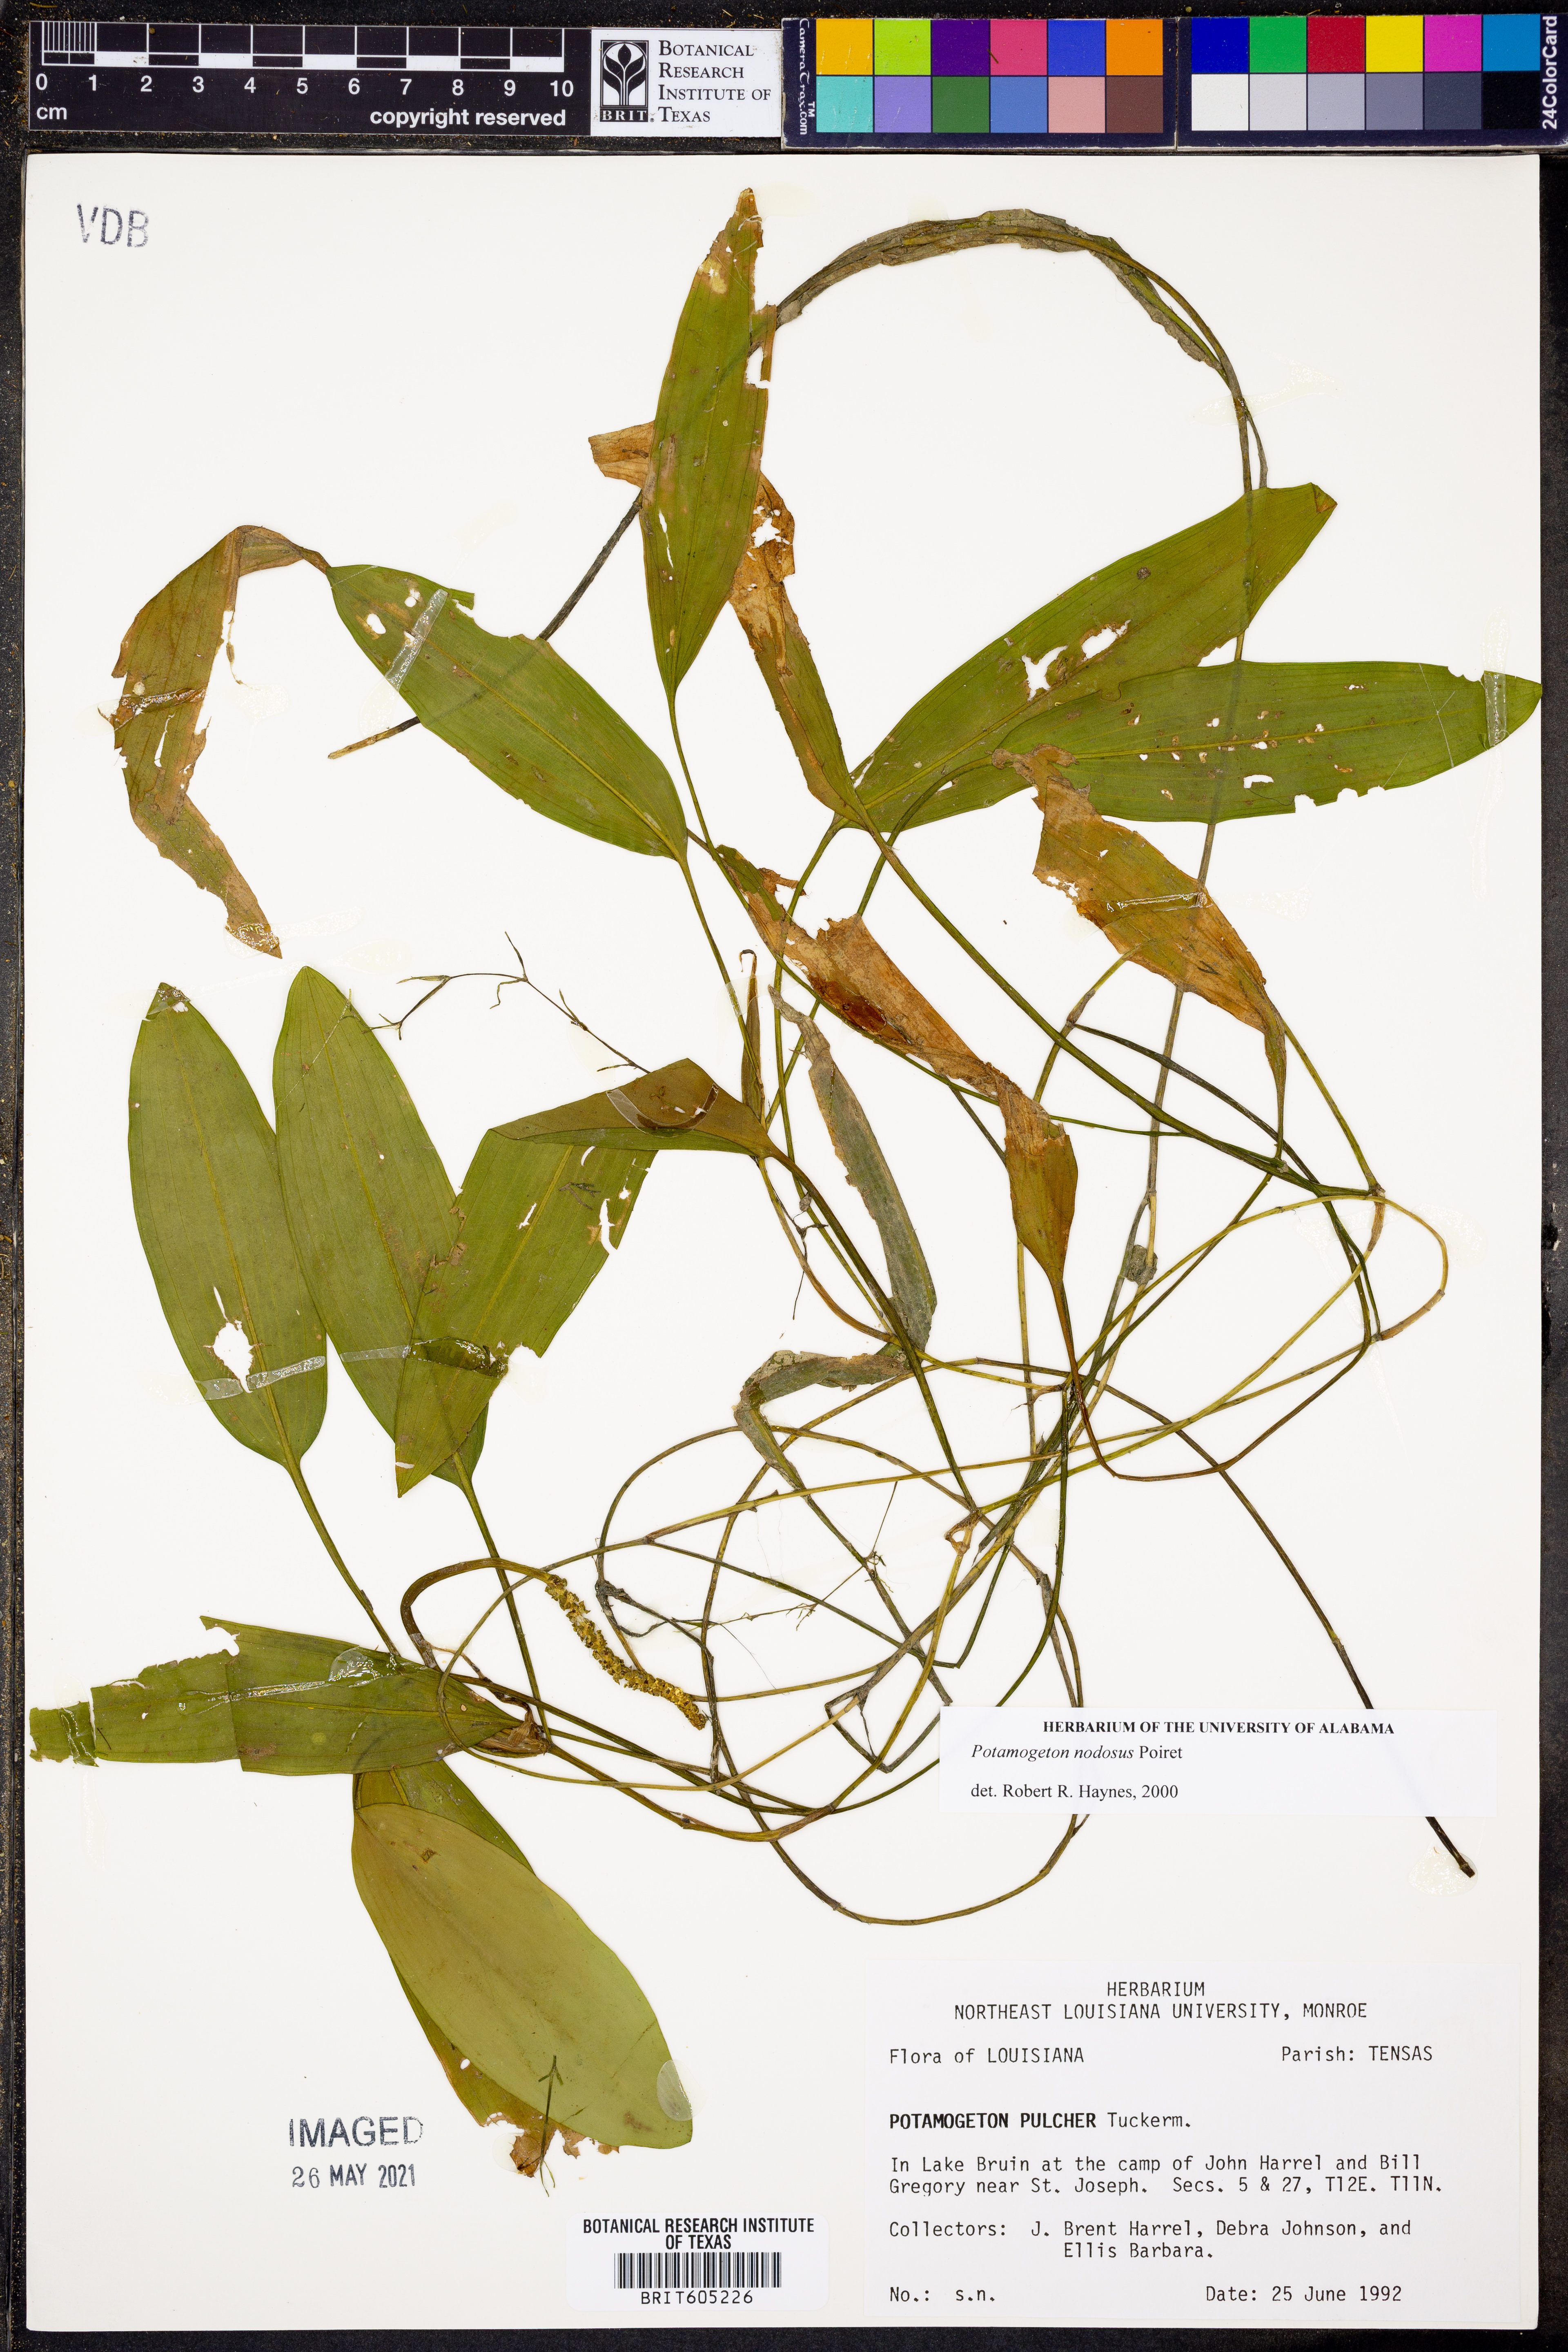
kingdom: Plantae
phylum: Tracheophyta
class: Liliopsida
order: Alismatales
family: Potamogetonaceae
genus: Potamogeton
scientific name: Potamogeton nodosus
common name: Loddon pondweed
